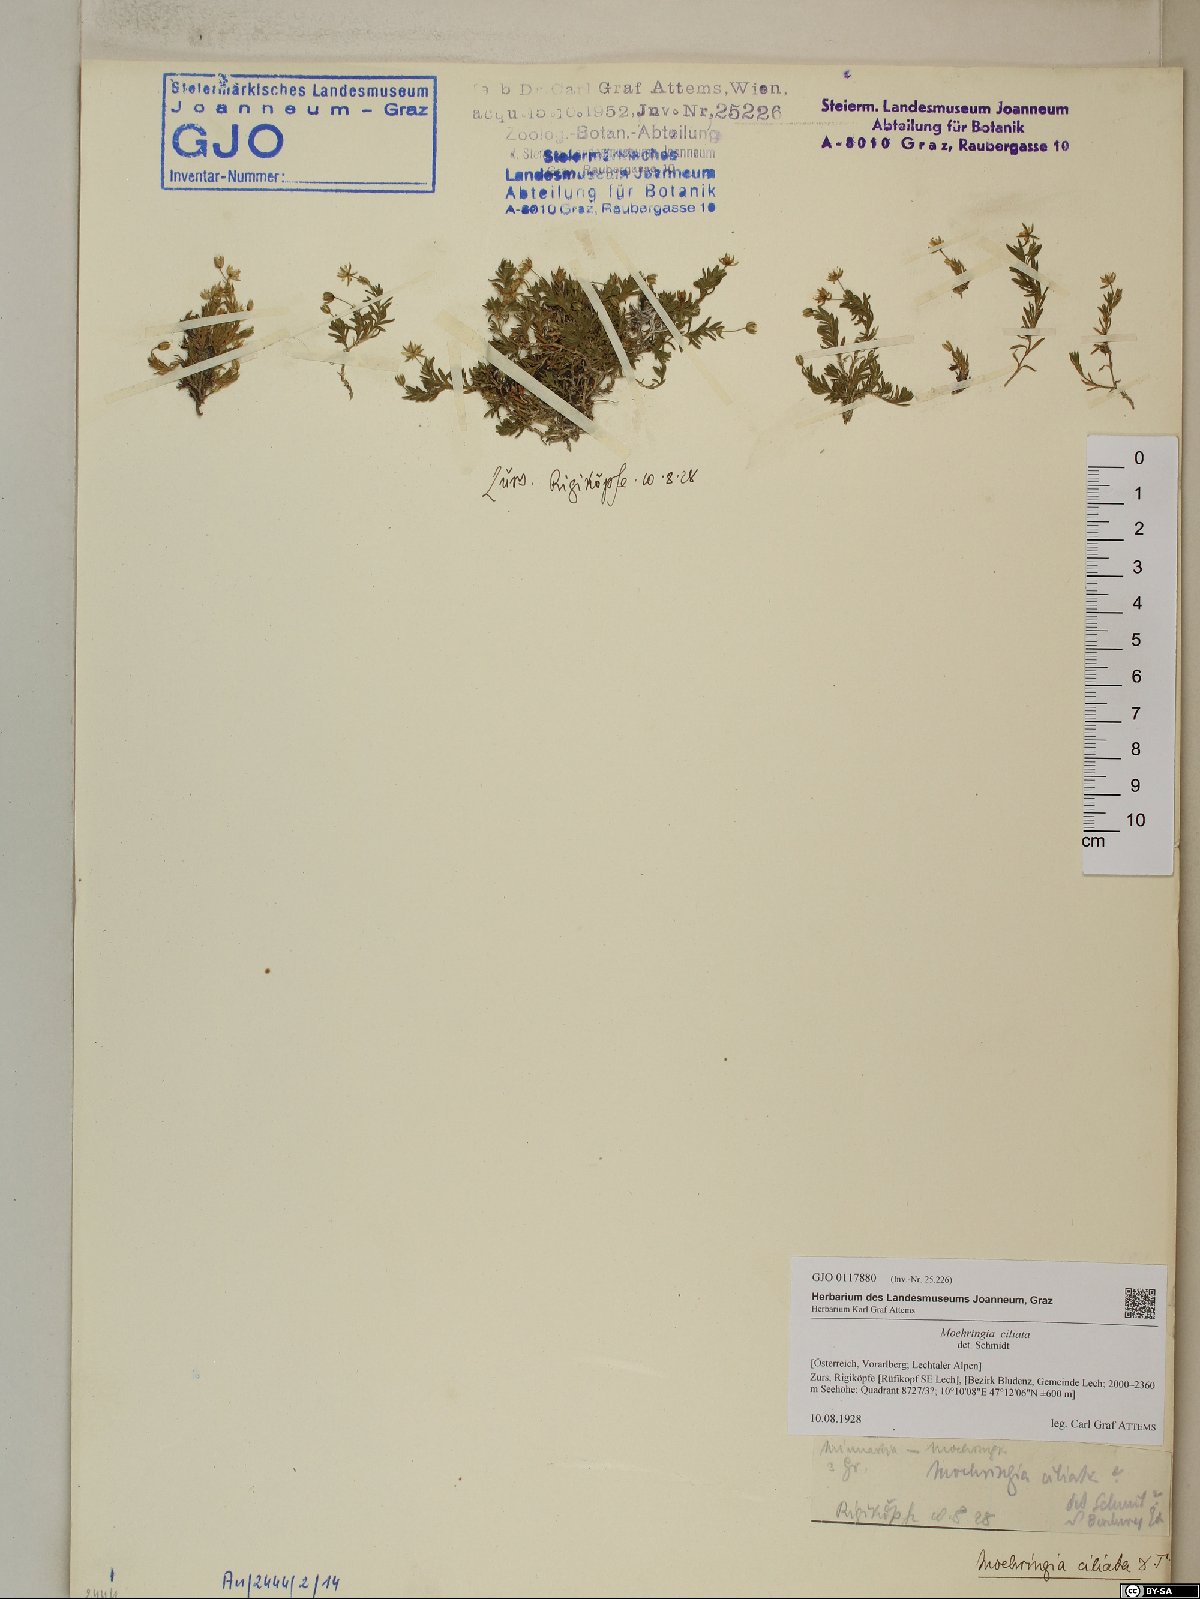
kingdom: Plantae
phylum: Tracheophyta
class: Magnoliopsida
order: Caryophyllales
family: Caryophyllaceae
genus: Moehringia
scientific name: Moehringia ciliata
